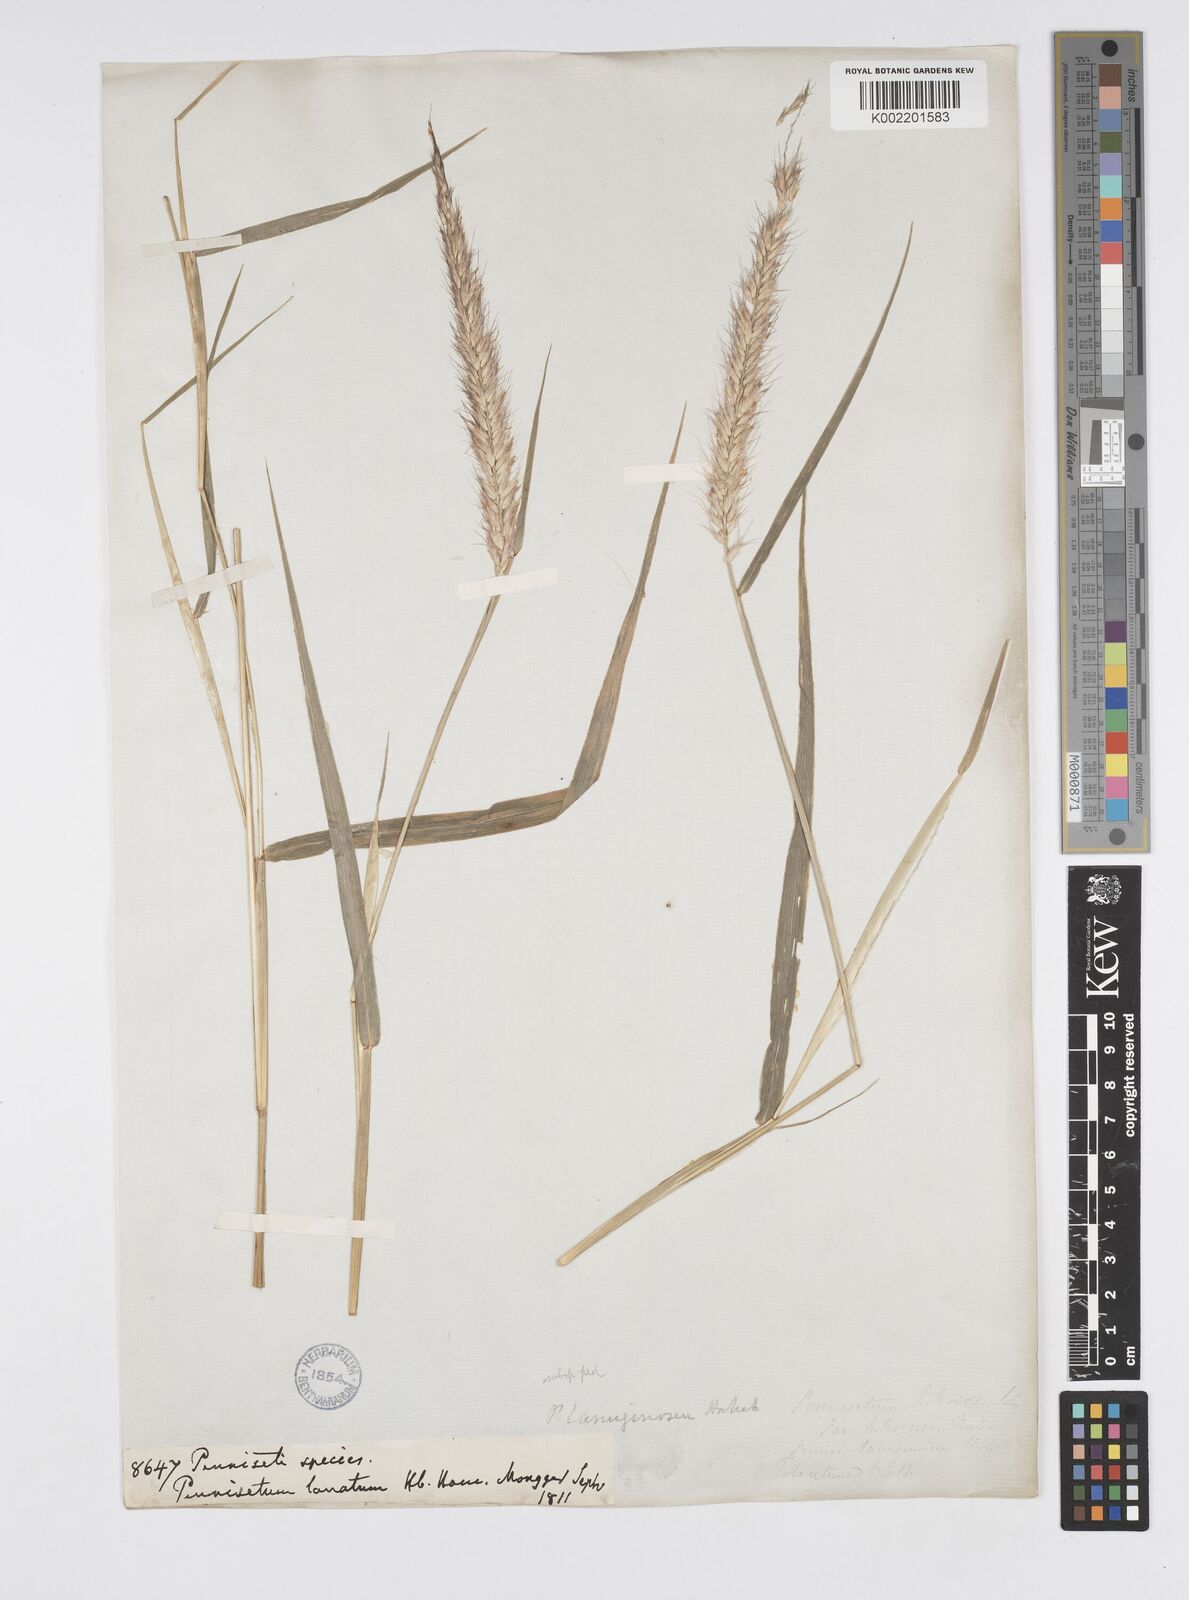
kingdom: Plantae
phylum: Tracheophyta
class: Liliopsida
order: Poales
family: Poaceae
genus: Cenchrus
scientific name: Cenchrus pedicellatus
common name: Hairy fountain grass
